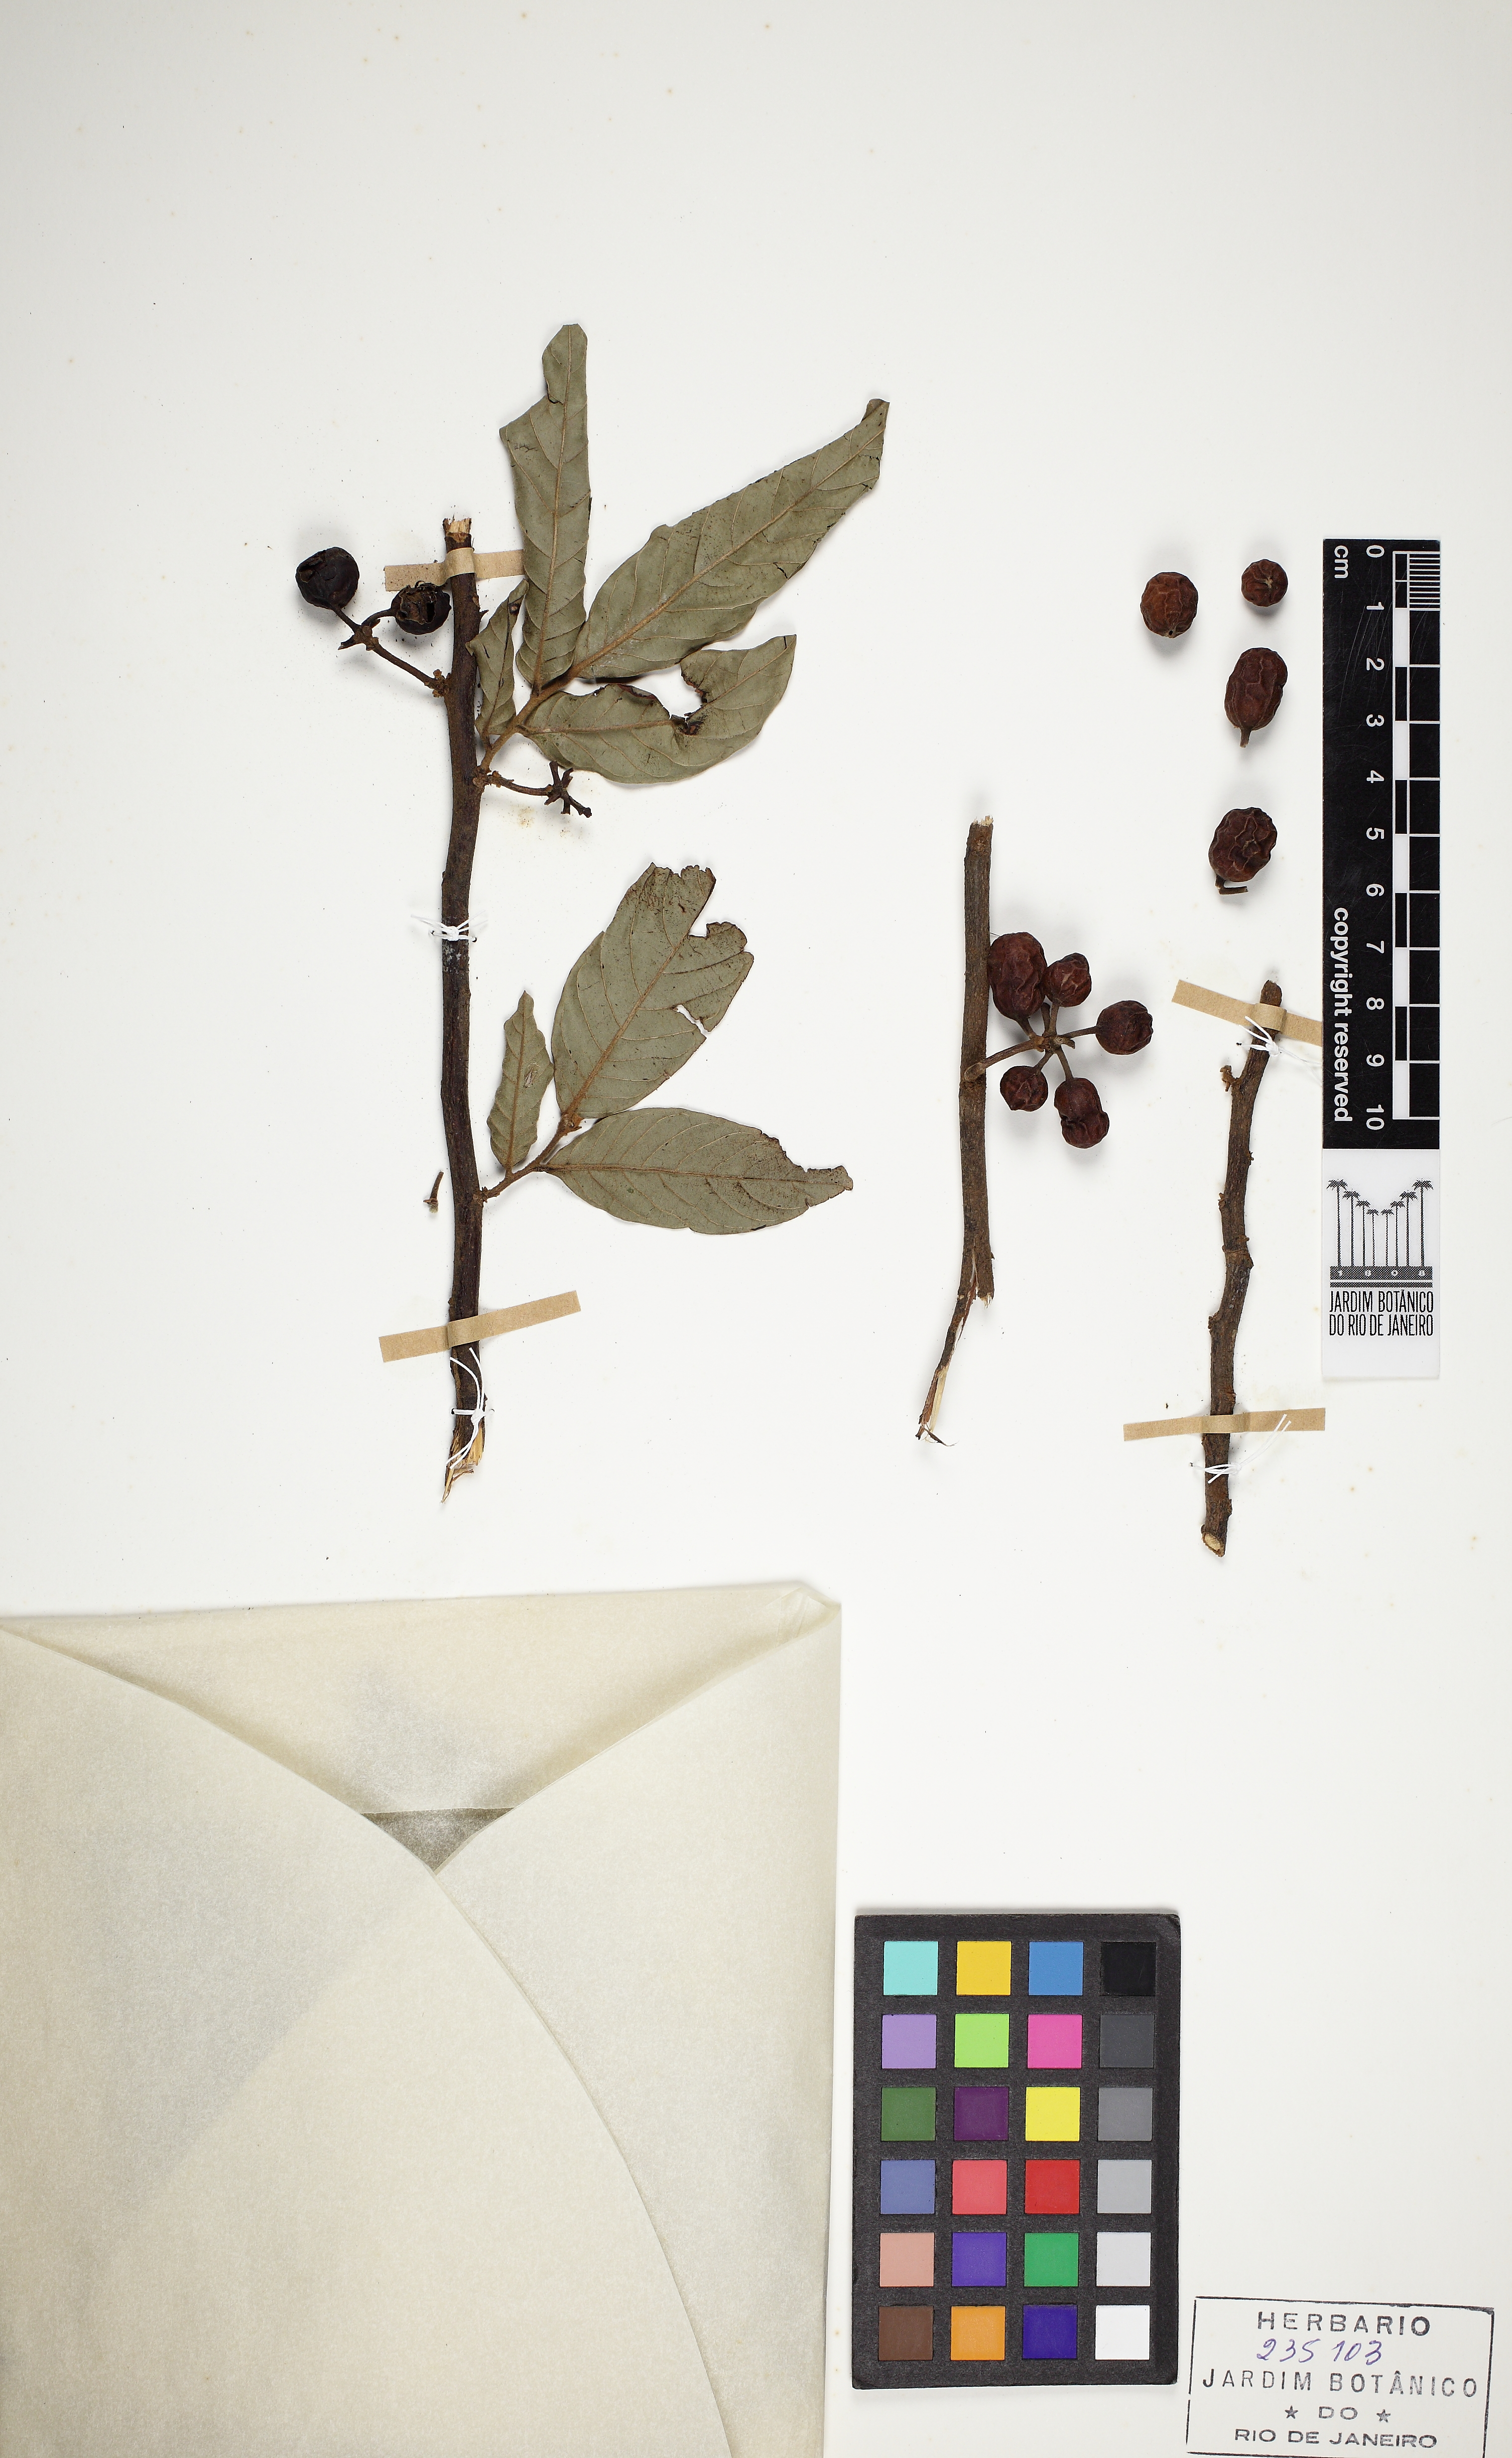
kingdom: Plantae
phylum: Tracheophyta
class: Magnoliopsida
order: Magnoliales
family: Annonaceae
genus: Unonopsis
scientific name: Unonopsis guatterioides
